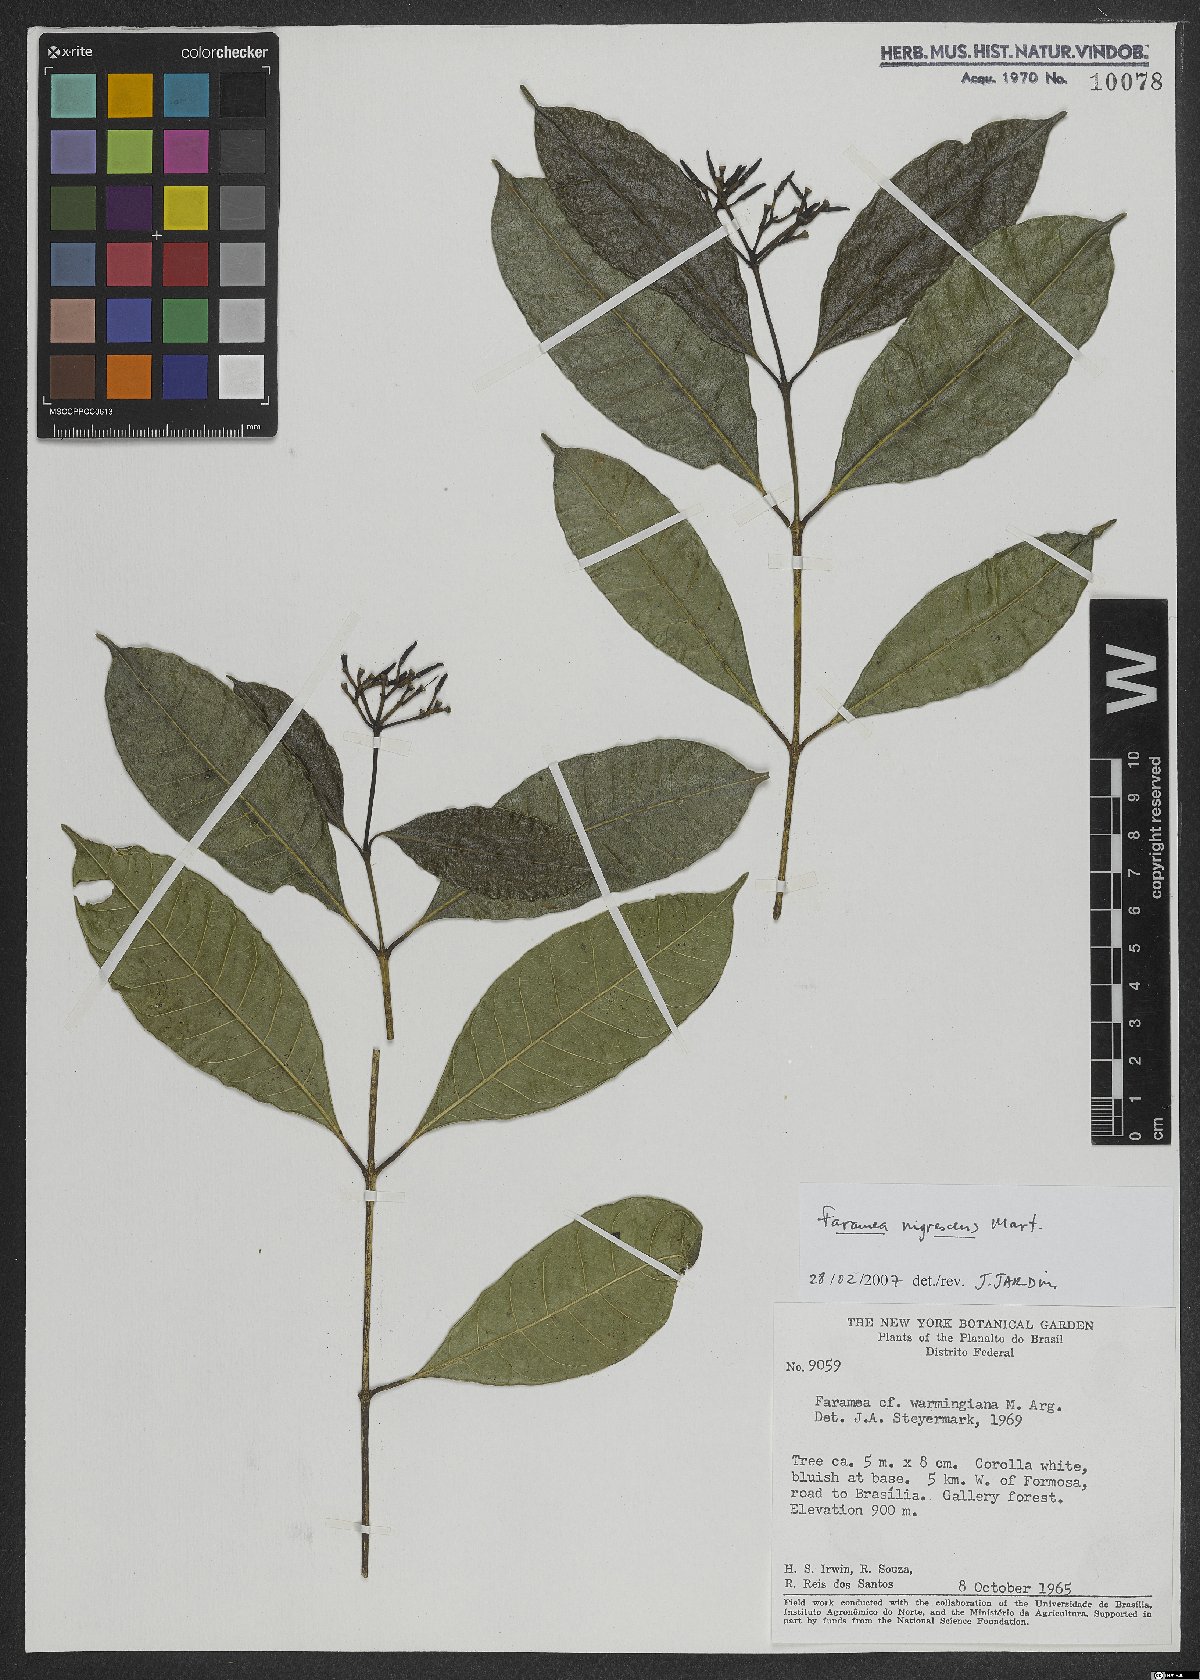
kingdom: Plantae
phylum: Tracheophyta
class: Magnoliopsida
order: Gentianales
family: Rubiaceae
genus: Faramea
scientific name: Faramea nigrescens
